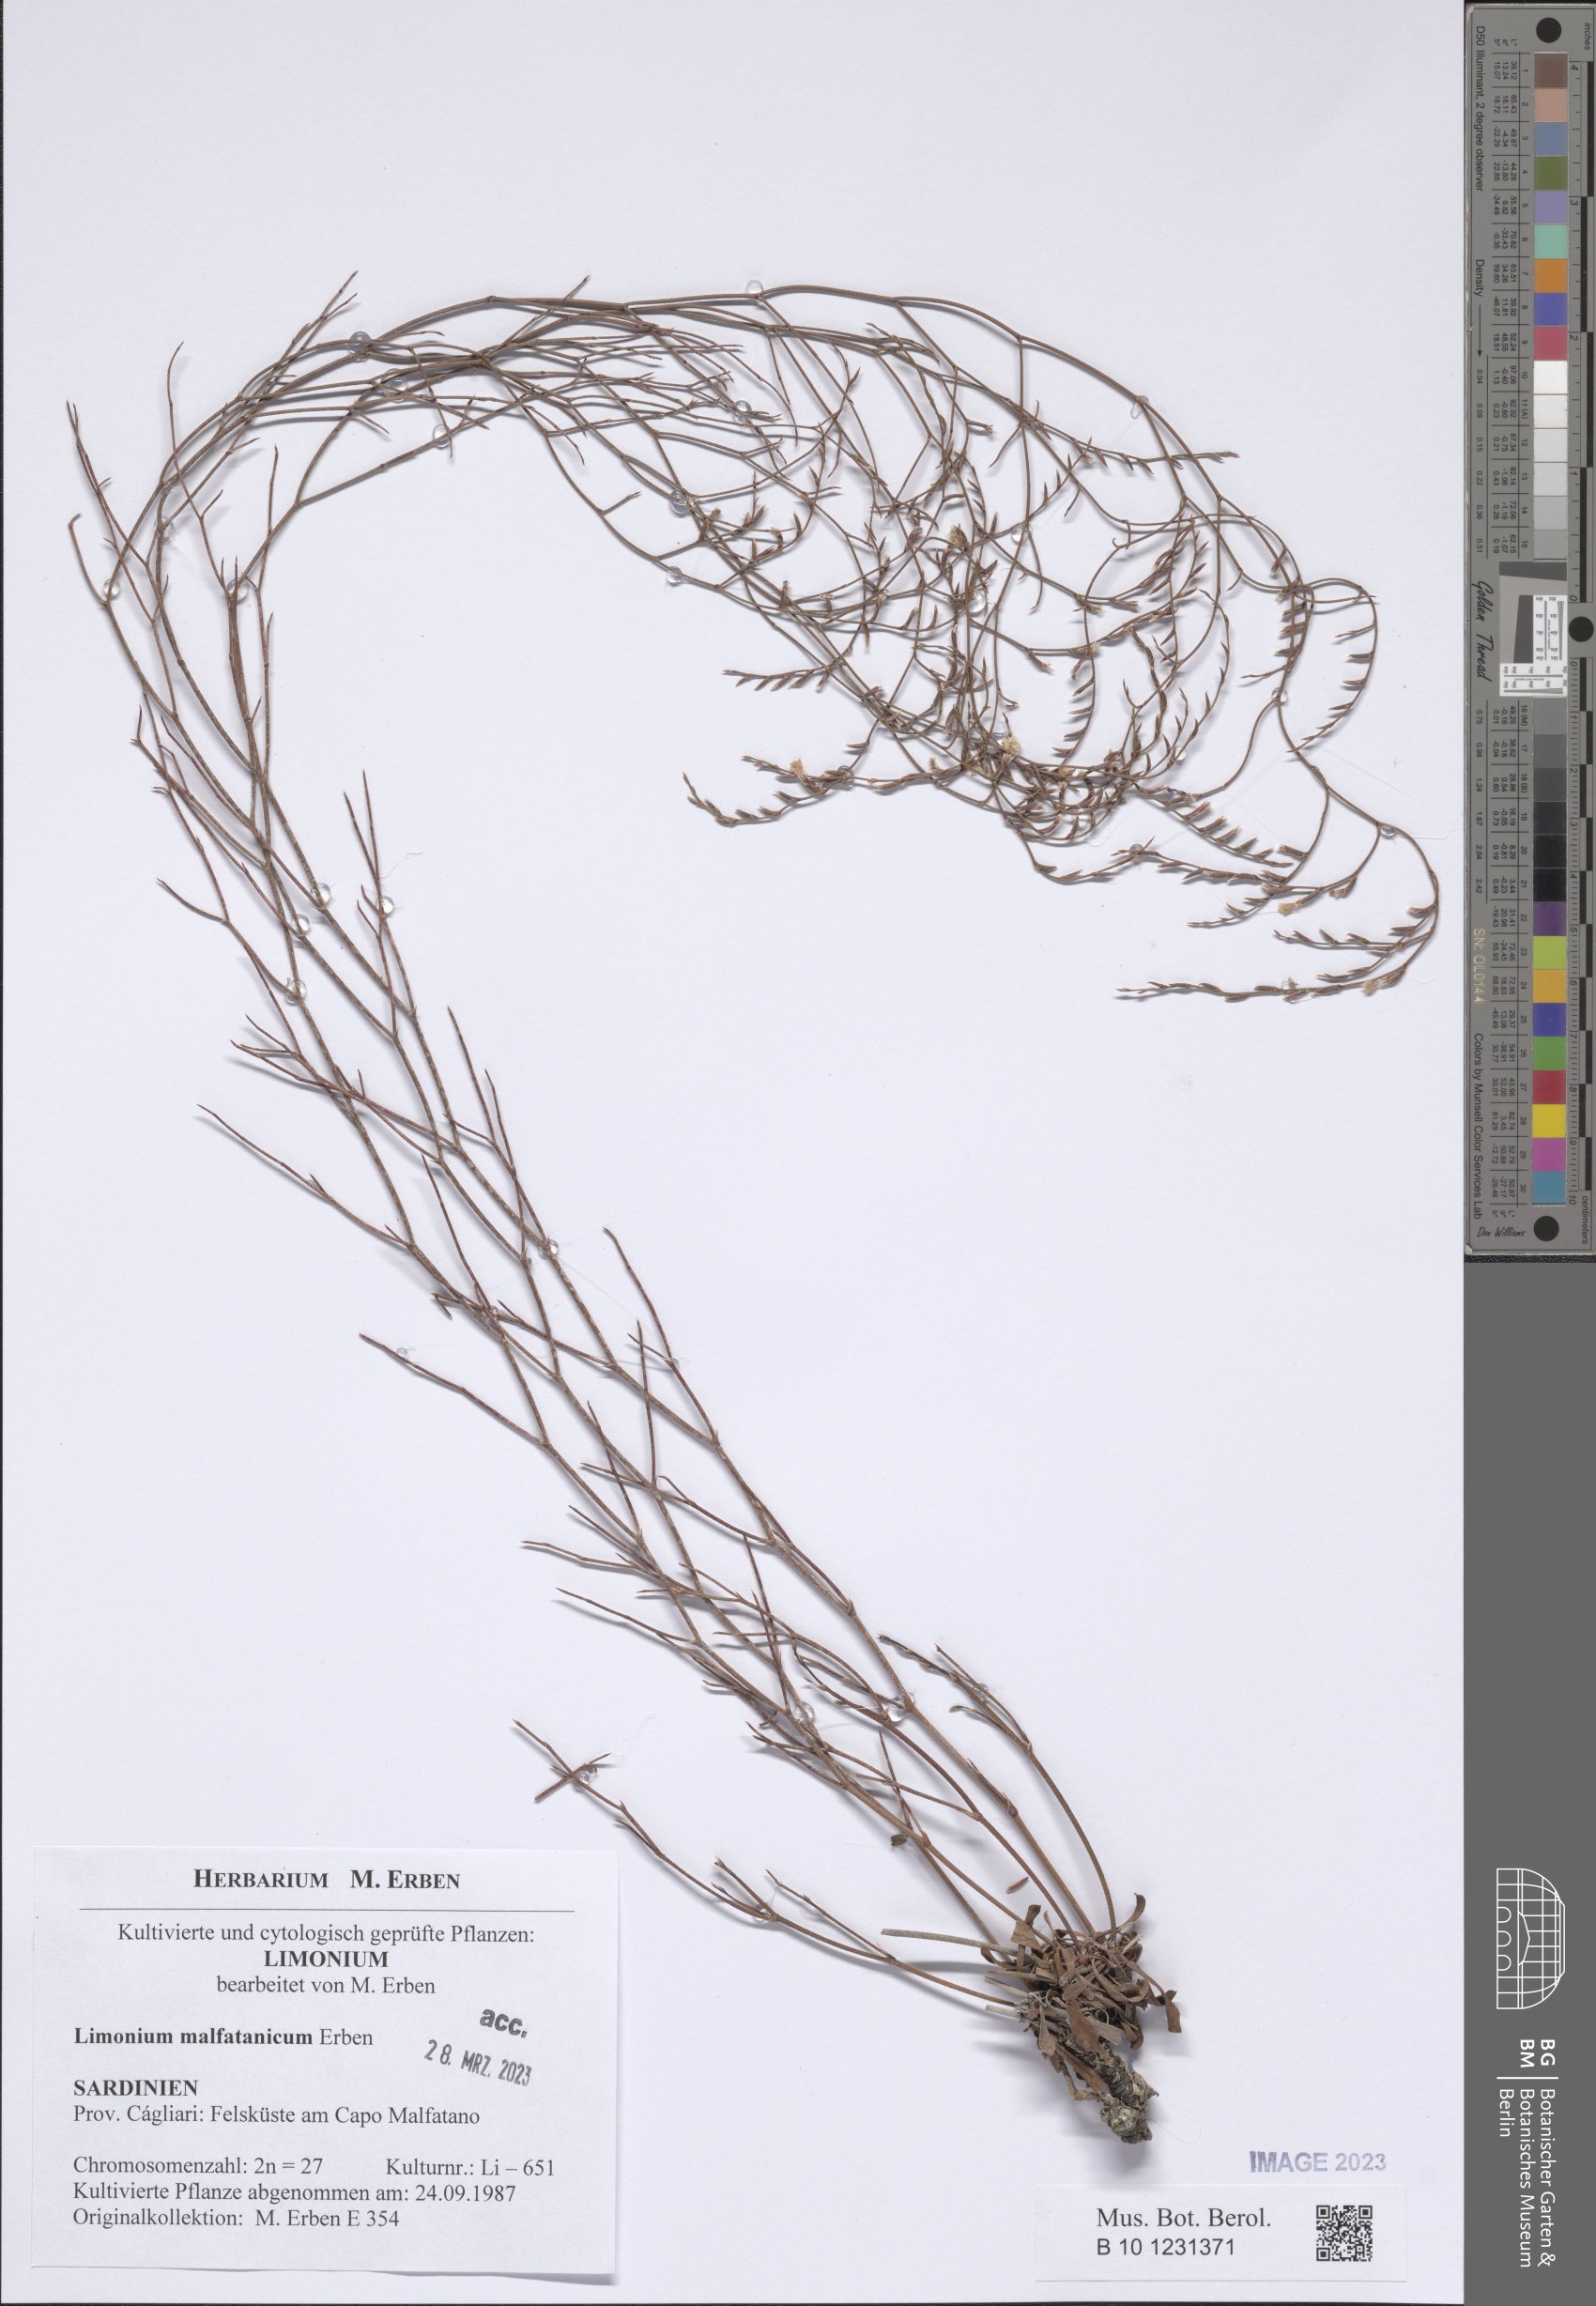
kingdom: Plantae
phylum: Tracheophyta
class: Magnoliopsida
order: Caryophyllales
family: Plumbaginaceae
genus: Limonium
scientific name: Limonium malfatanicum
